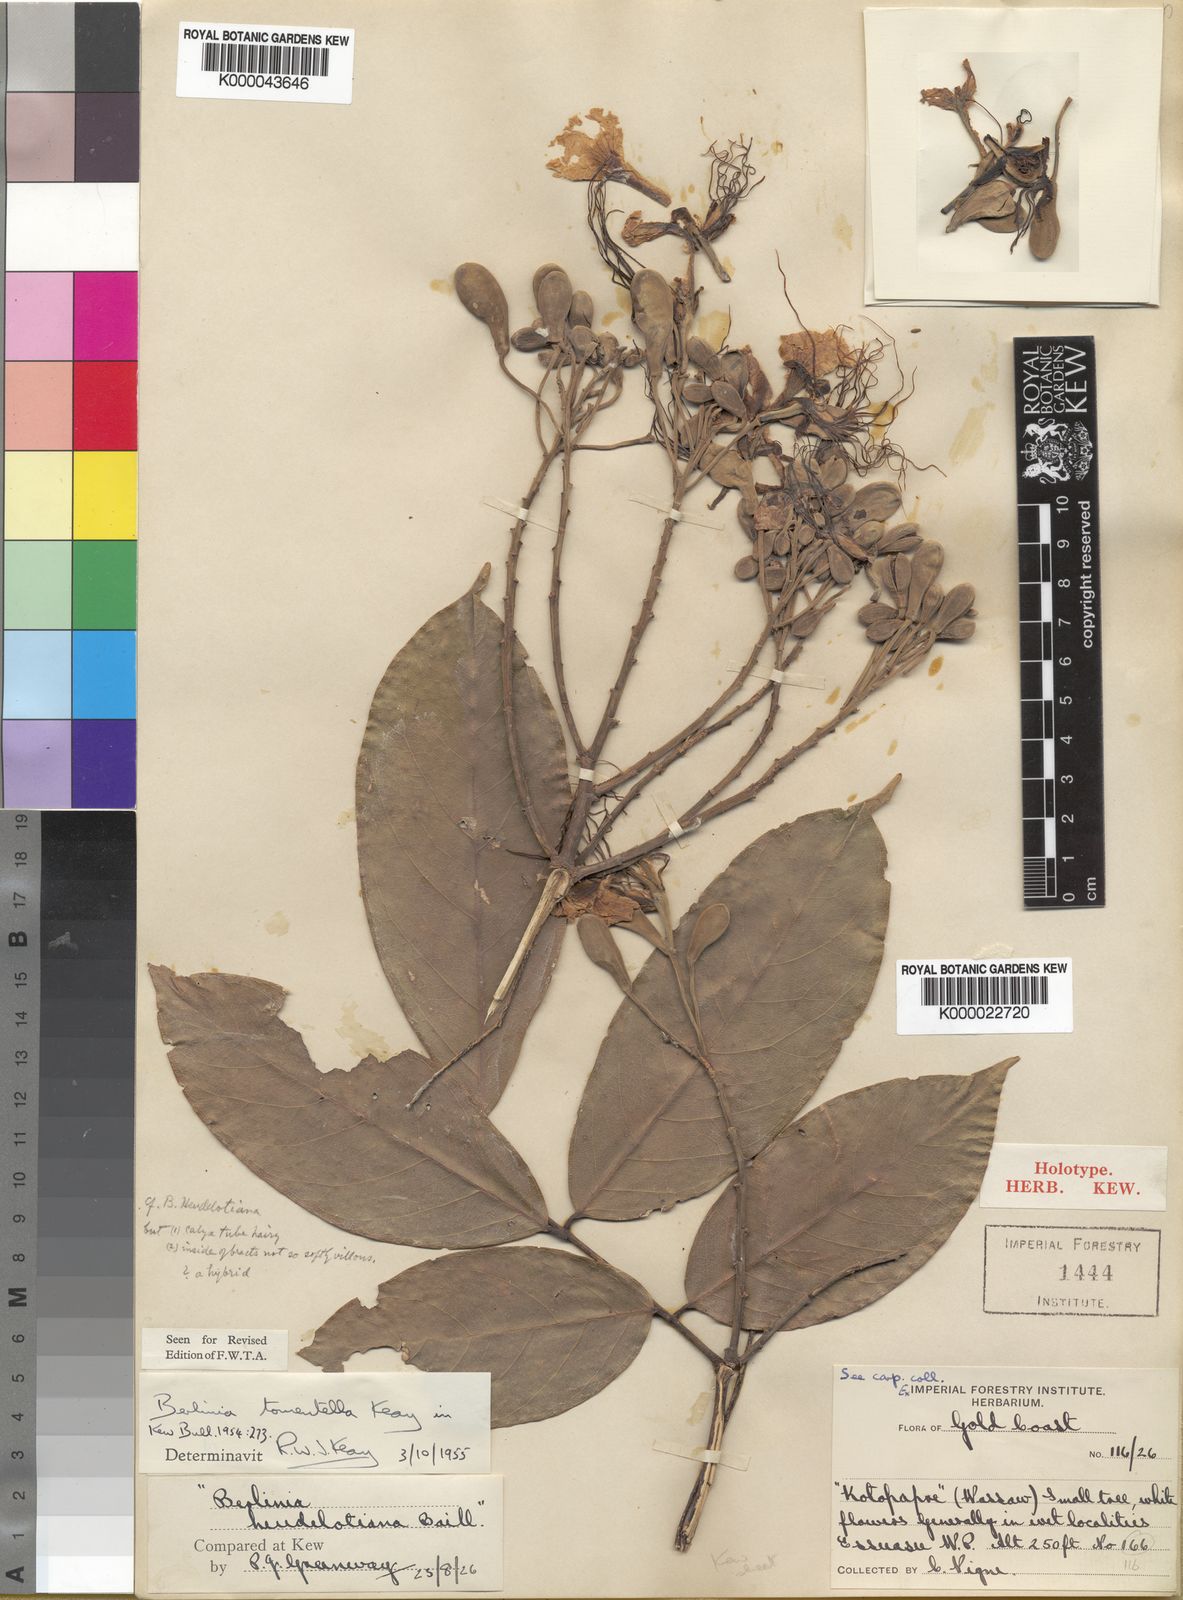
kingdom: Plantae
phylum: Tracheophyta
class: Magnoliopsida
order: Fabales
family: Fabaceae
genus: Berlinia
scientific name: Berlinia tomentella
